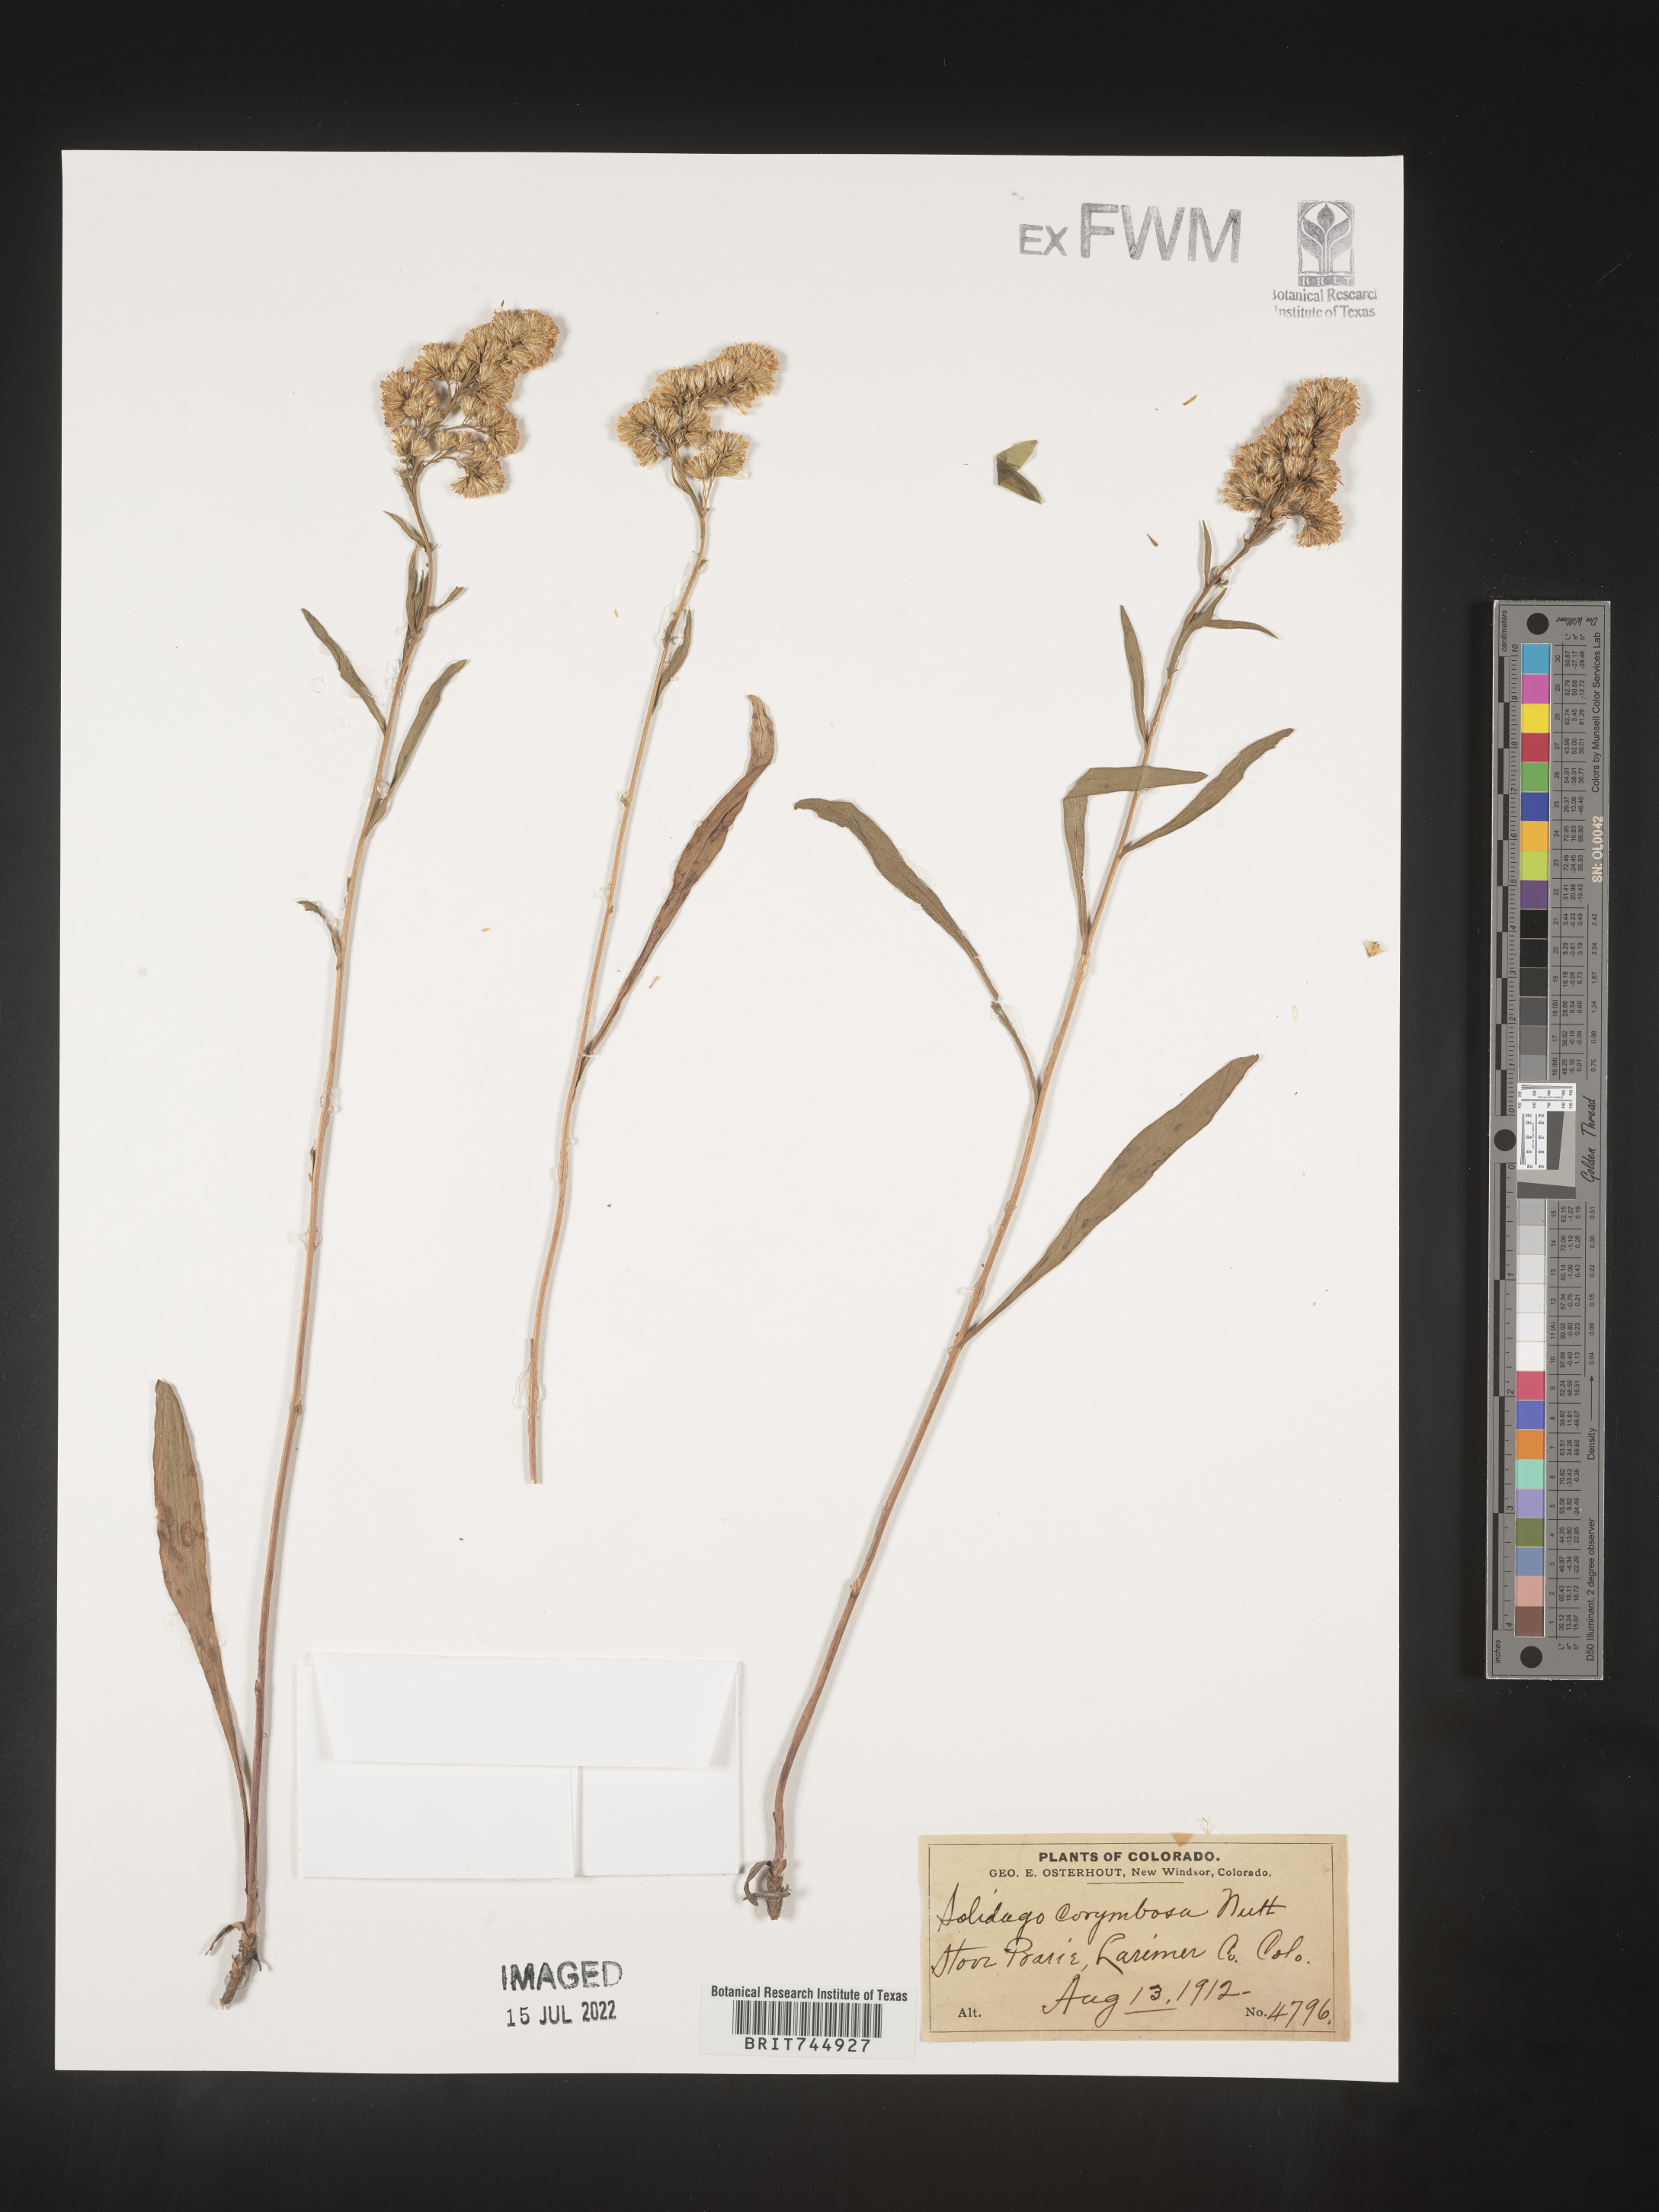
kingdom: Plantae
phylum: Tracheophyta
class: Magnoliopsida
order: Asterales
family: Asteraceae
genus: Solidago
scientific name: Solidago
